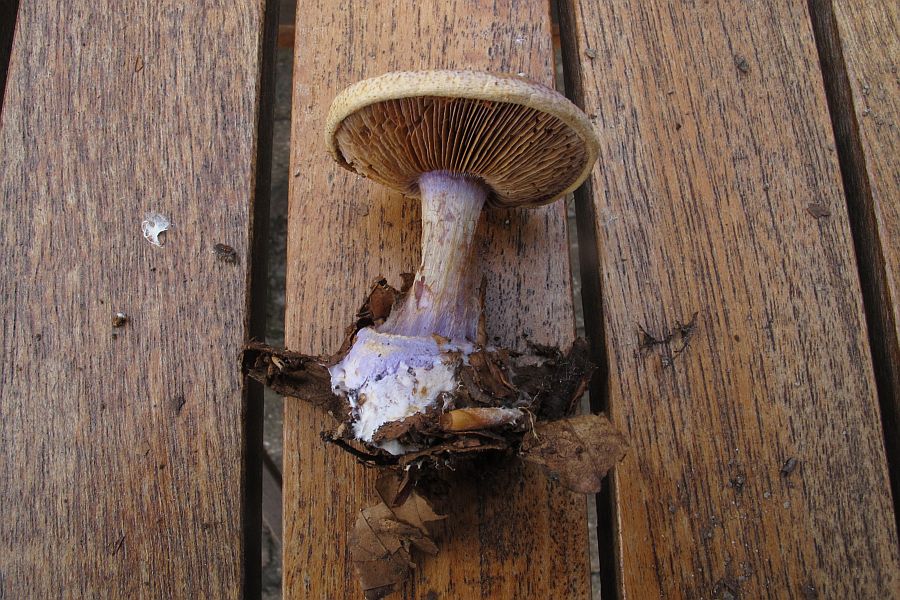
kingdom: Fungi
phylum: Basidiomycota
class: Agaricomycetes
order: Agaricales
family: Cortinariaceae
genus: Calonarius
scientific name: Calonarius sodagnitus
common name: violblå slørhat
